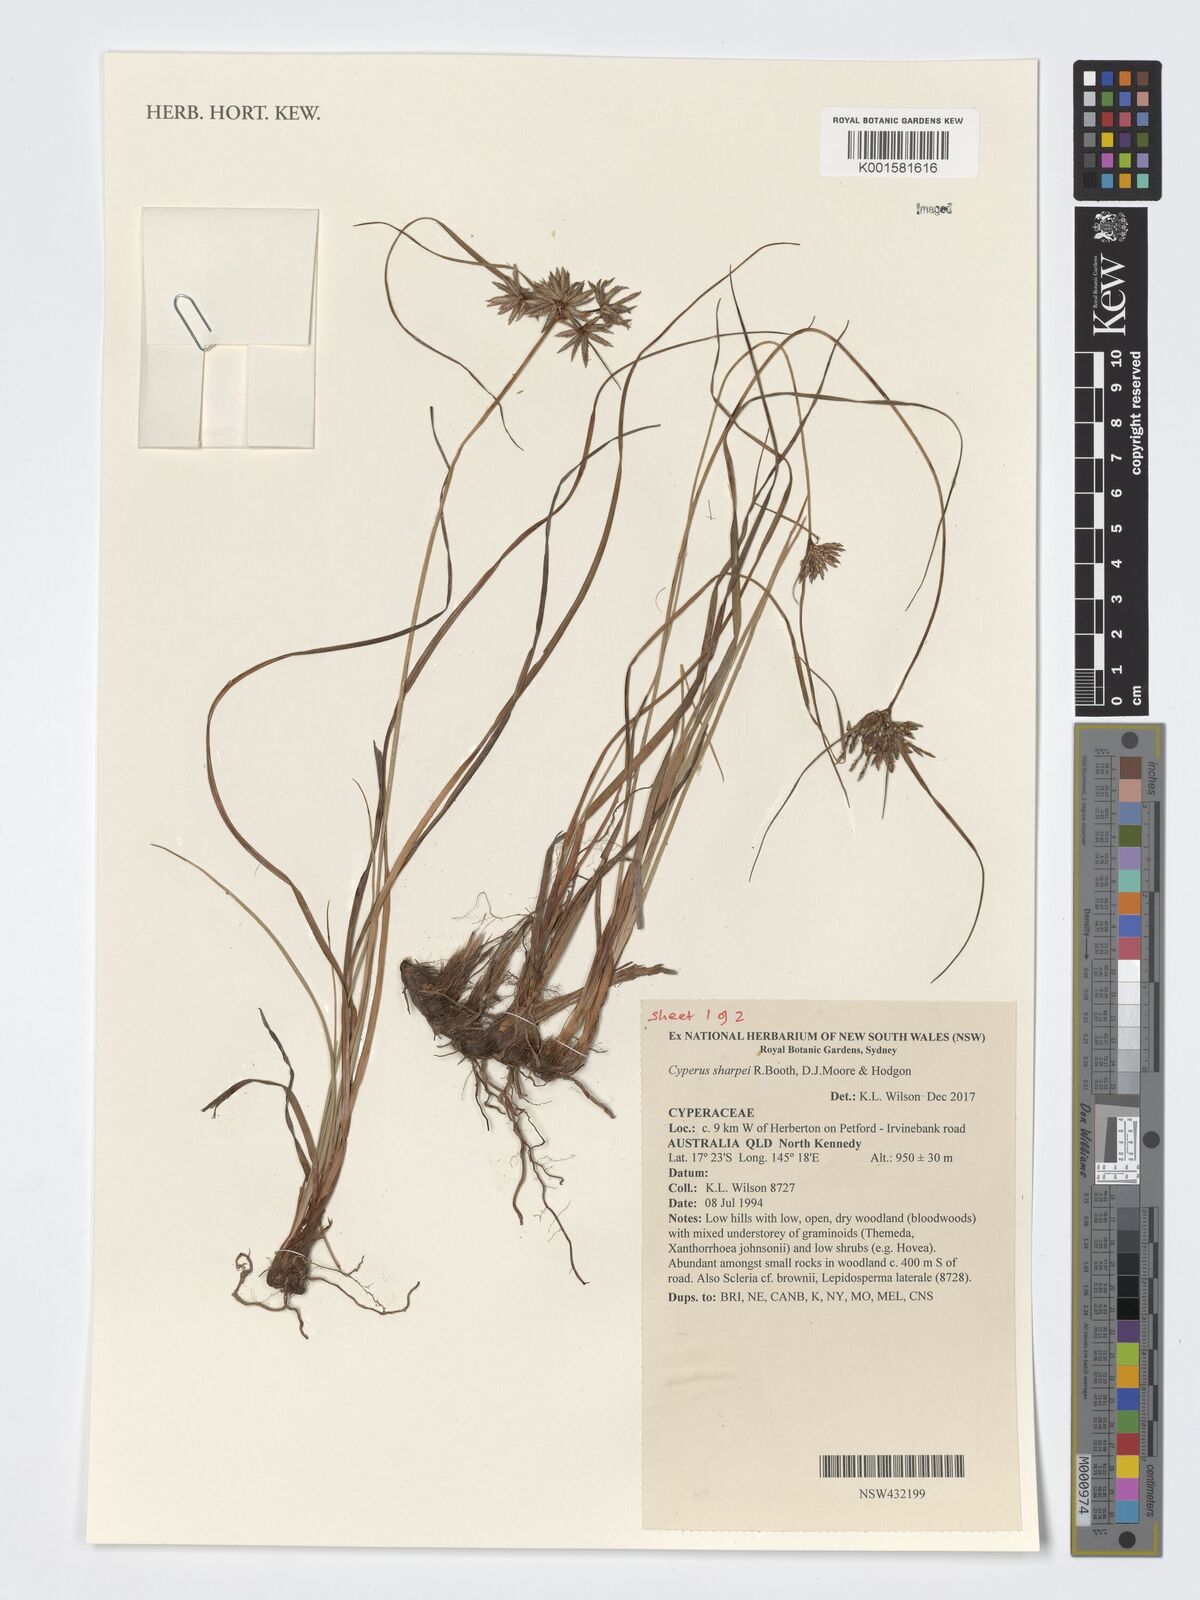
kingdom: Plantae
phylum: Tracheophyta
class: Liliopsida
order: Poales
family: Cyperaceae
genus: Cyperus
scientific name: Cyperus sharpei
